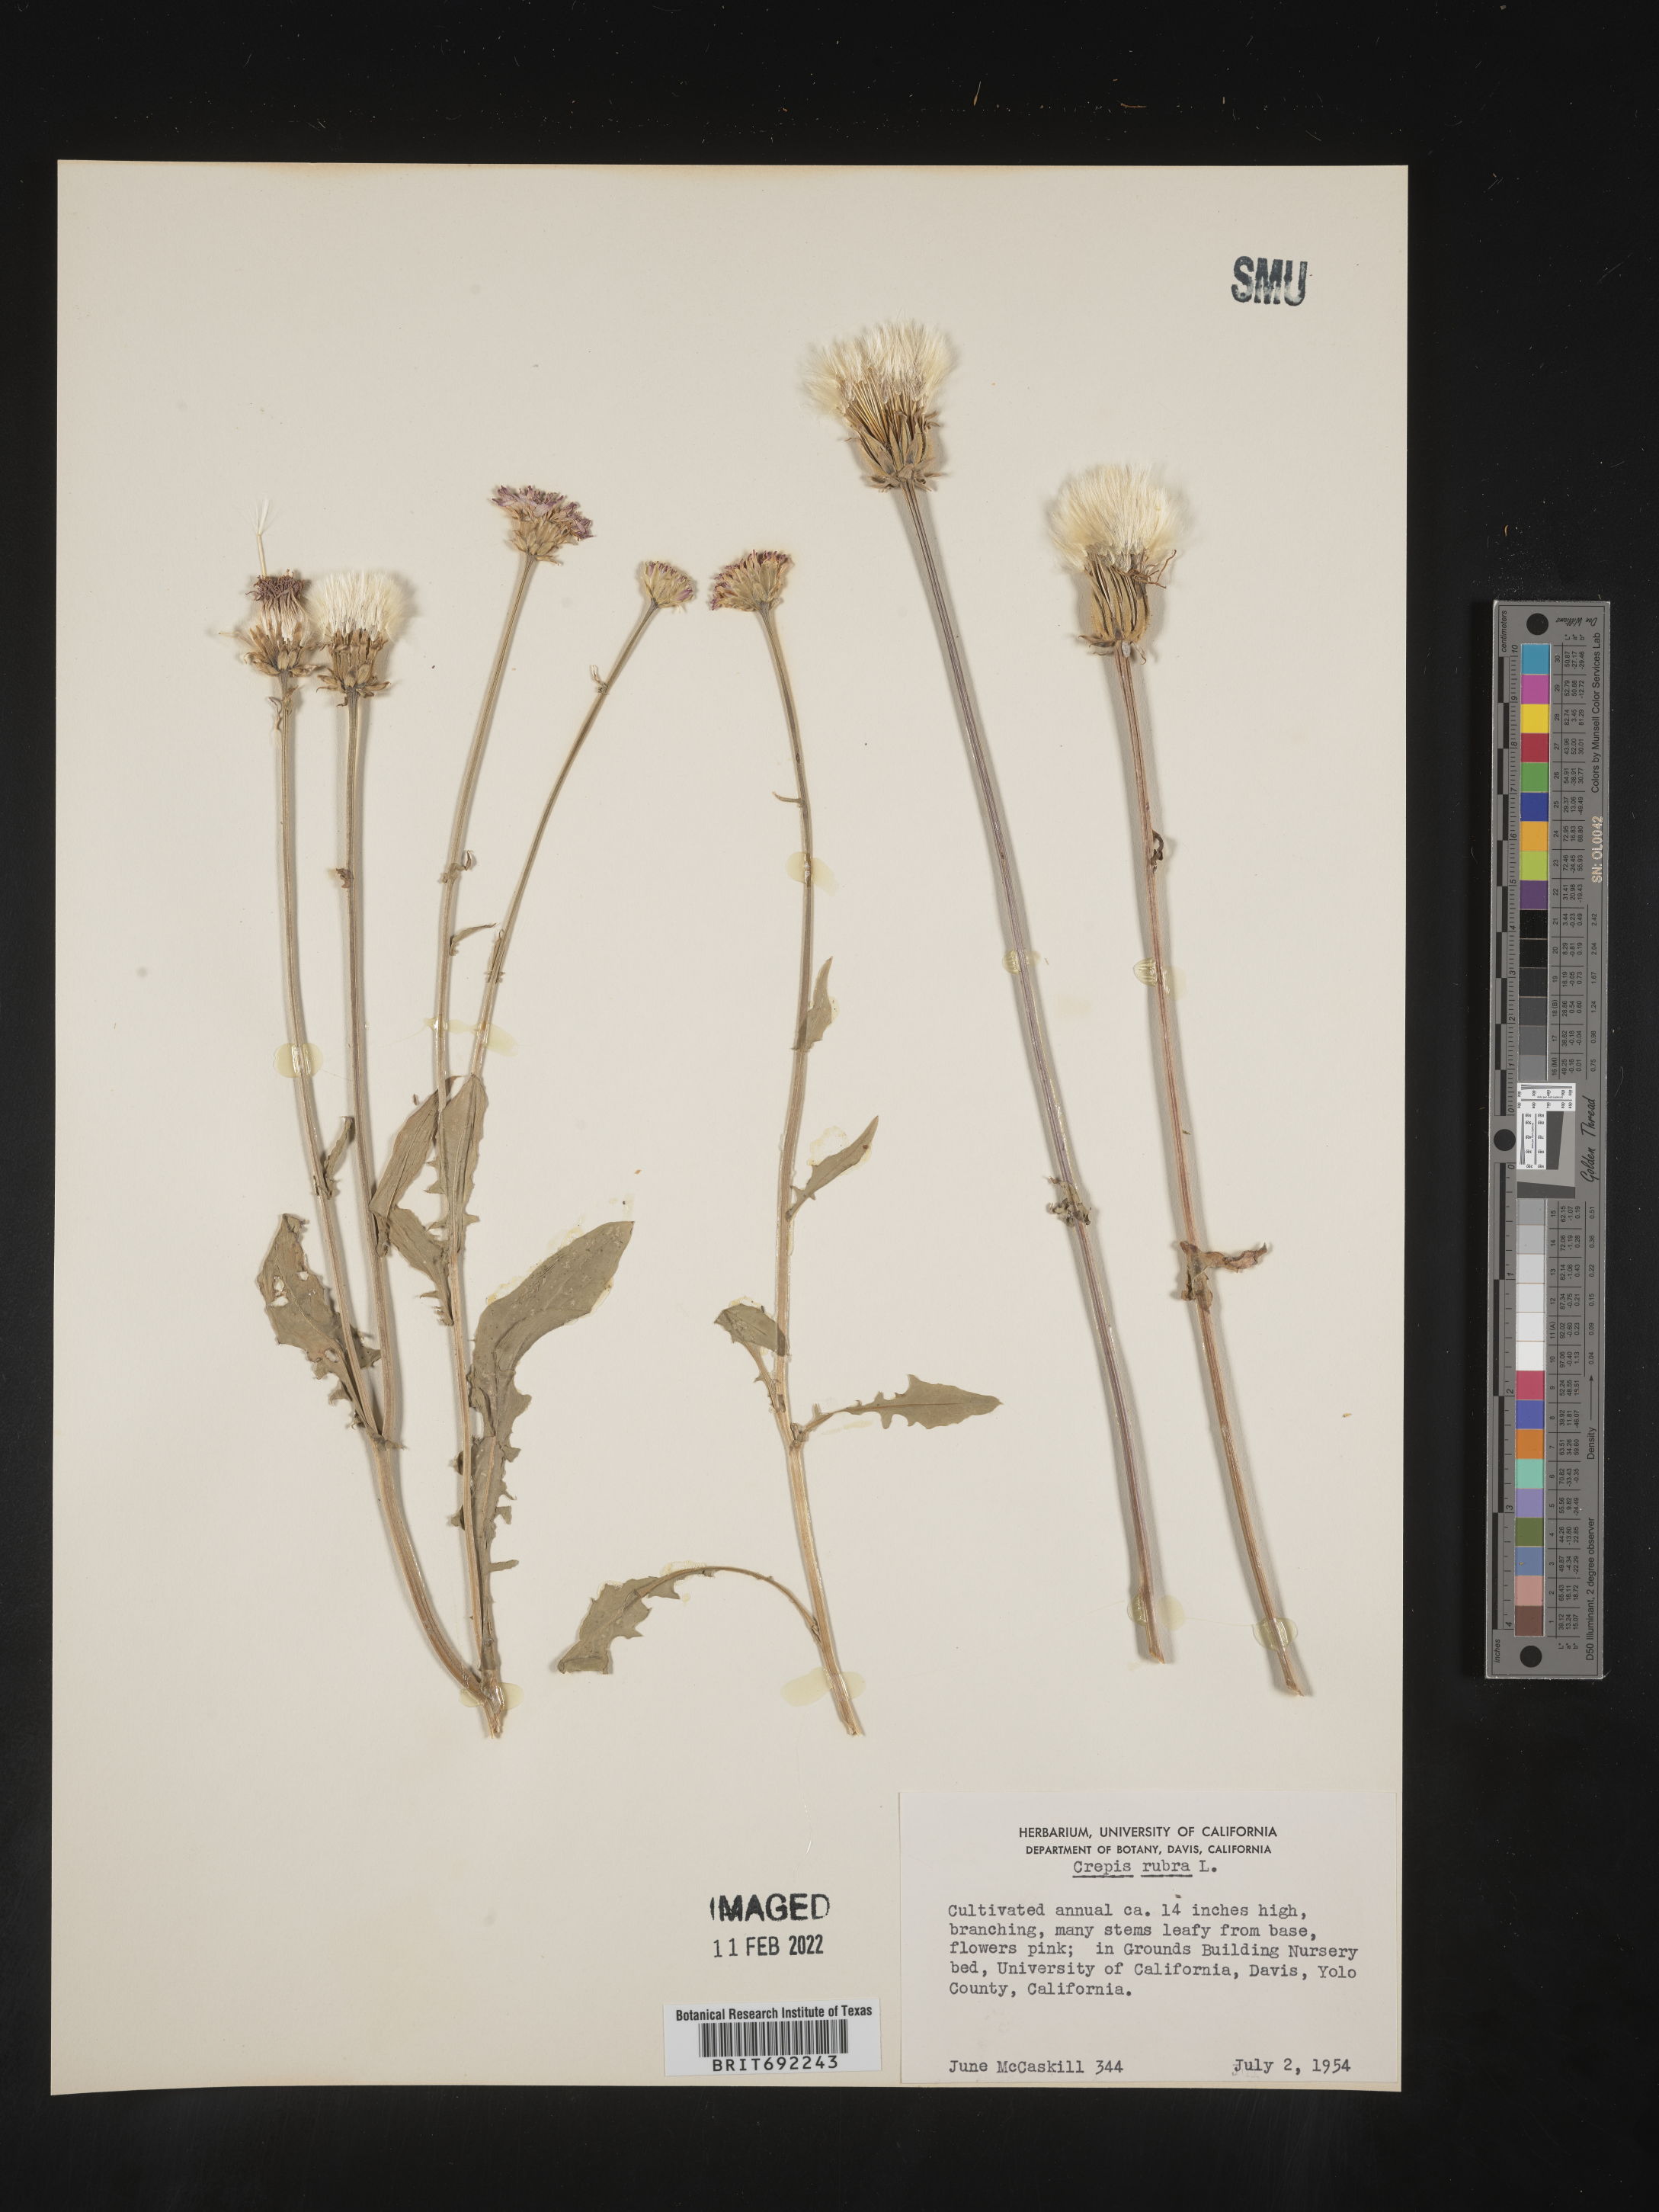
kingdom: Plantae
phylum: Tracheophyta
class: Magnoliopsida
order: Asterales
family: Asteraceae
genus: Critonia
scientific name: Critonia
